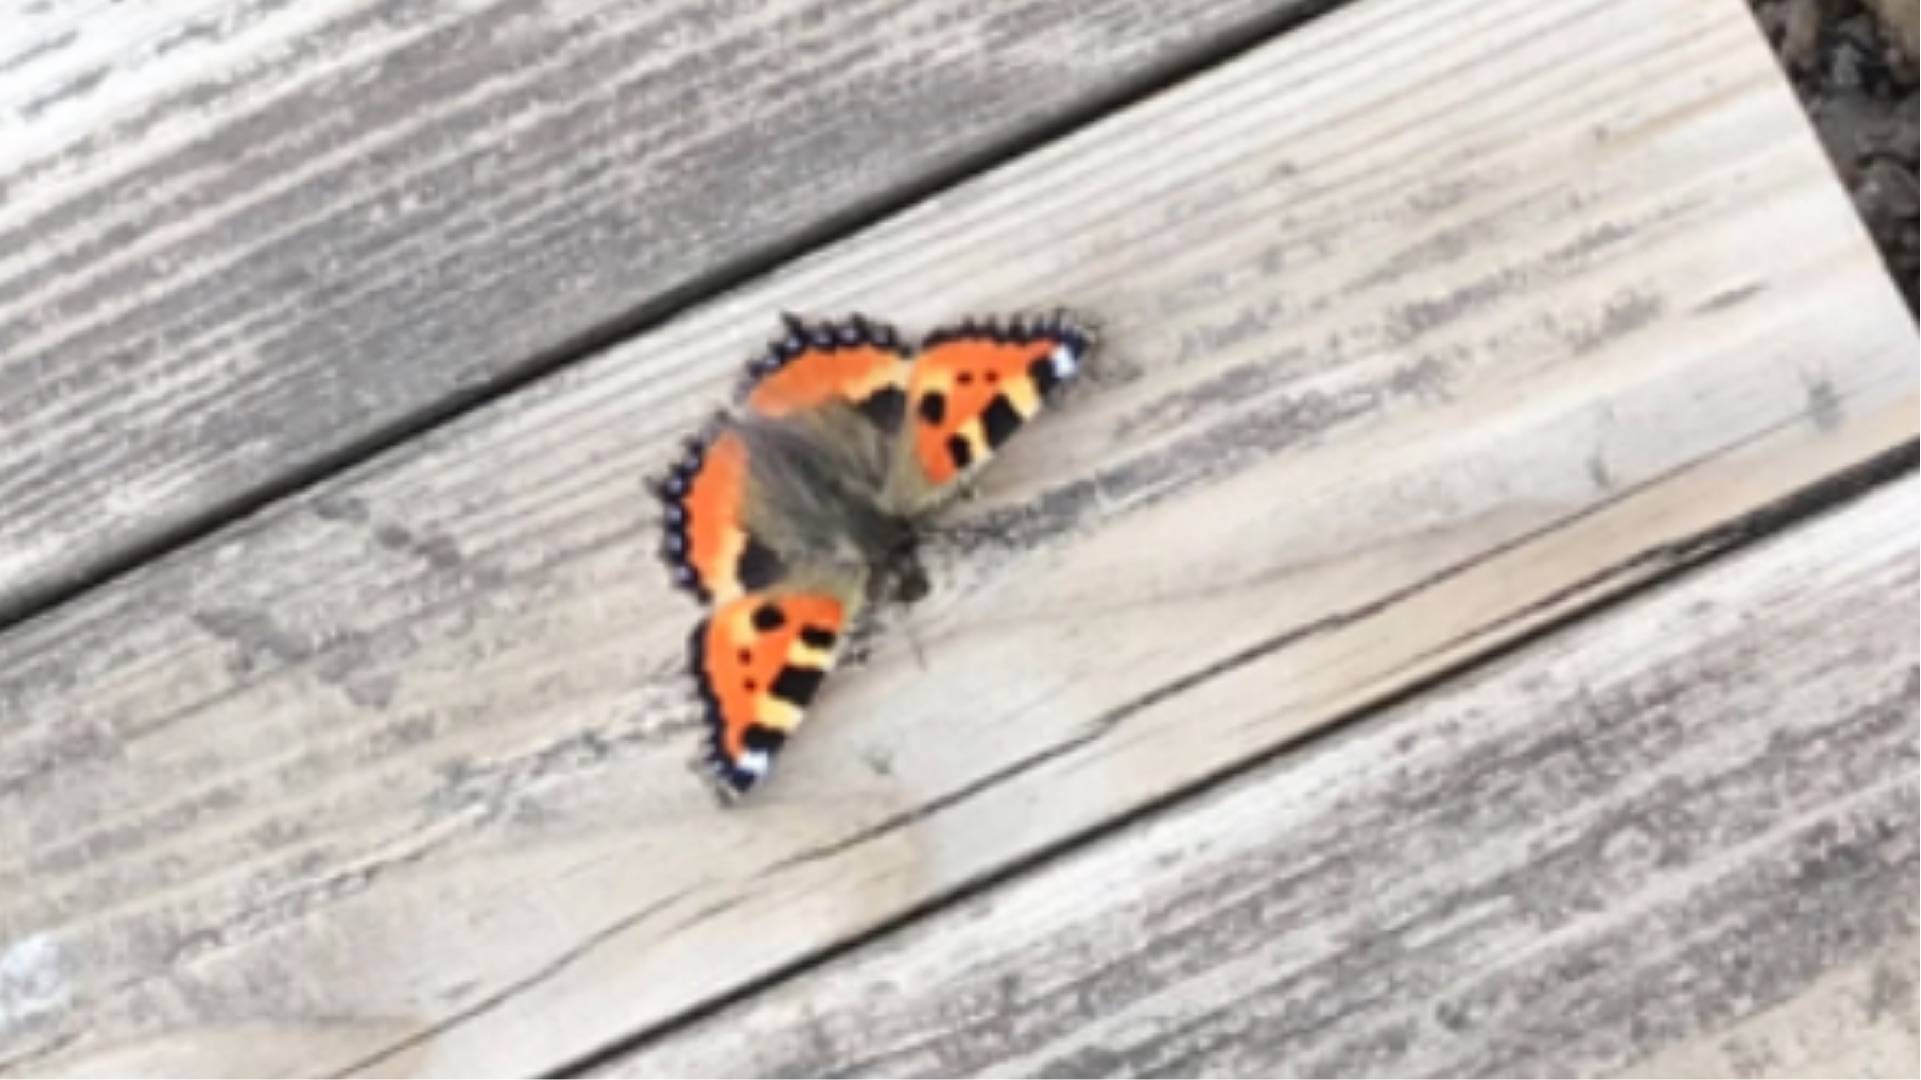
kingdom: Animalia
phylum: Arthropoda
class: Insecta
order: Lepidoptera
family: Nymphalidae
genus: Aglais
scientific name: Aglais urticae
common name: Nældens takvinge
